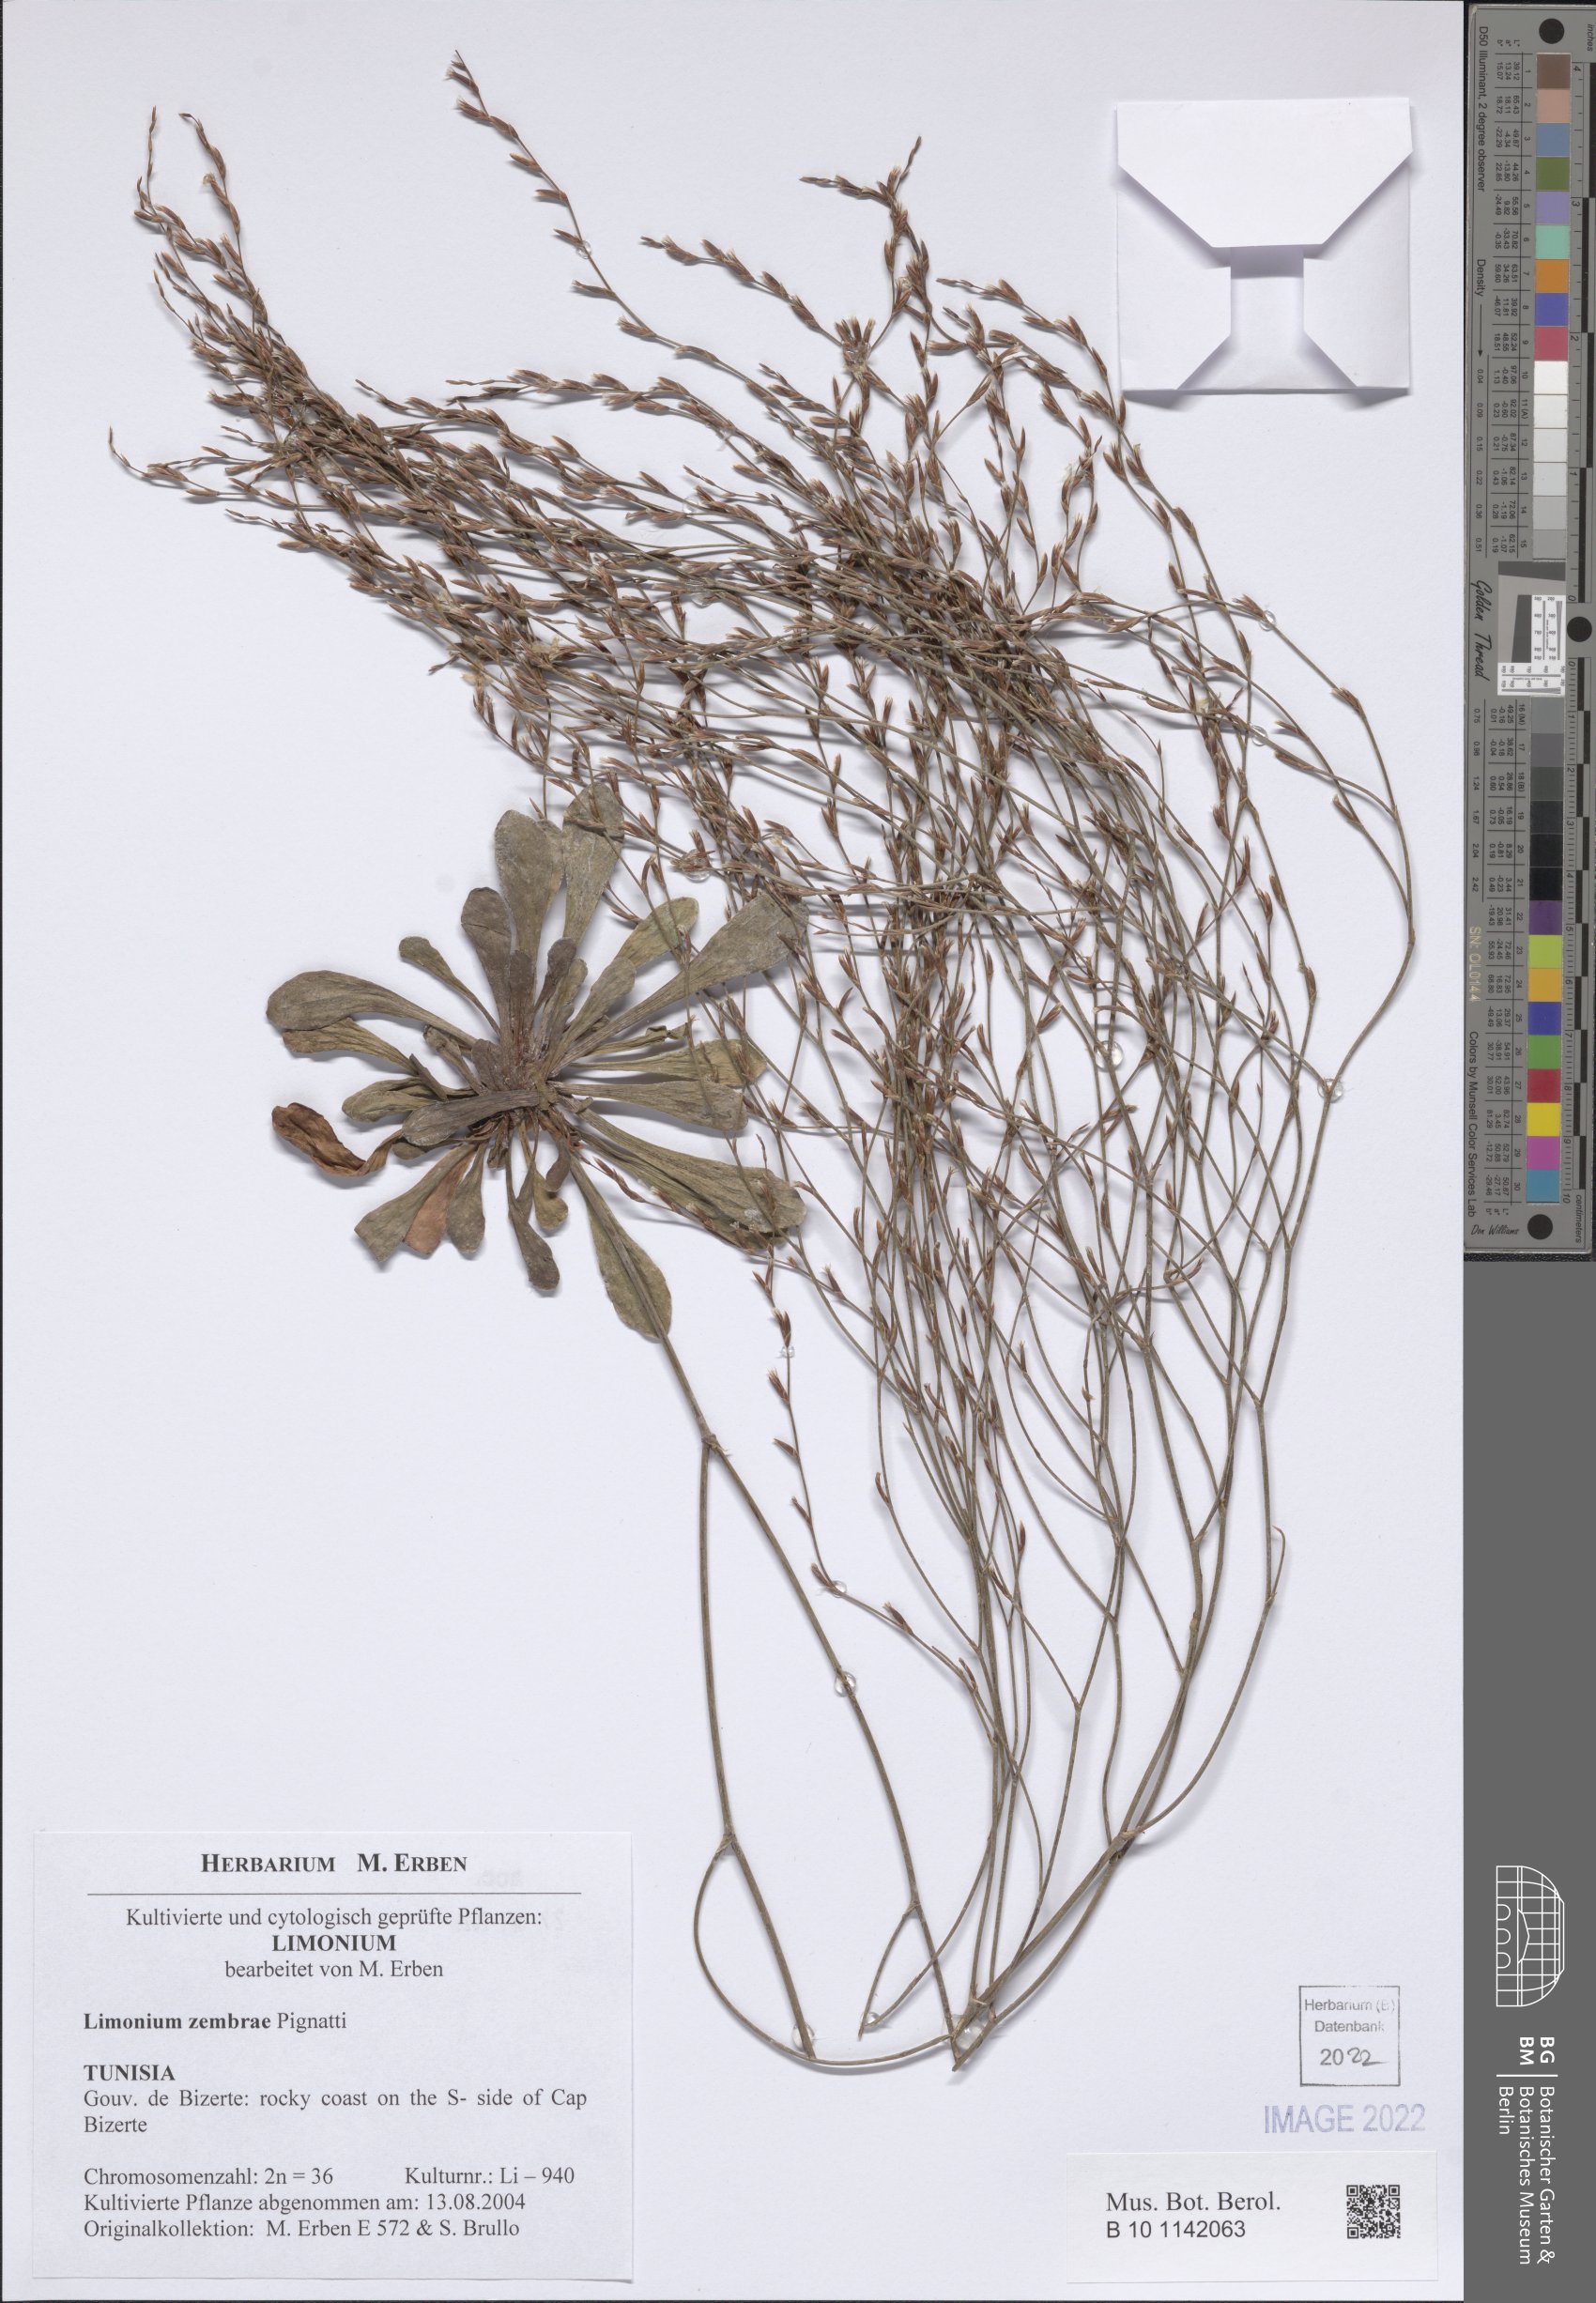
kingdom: Plantae
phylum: Tracheophyta
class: Magnoliopsida
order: Caryophyllales
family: Plumbaginaceae
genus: Limonium
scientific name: Limonium zembrae
